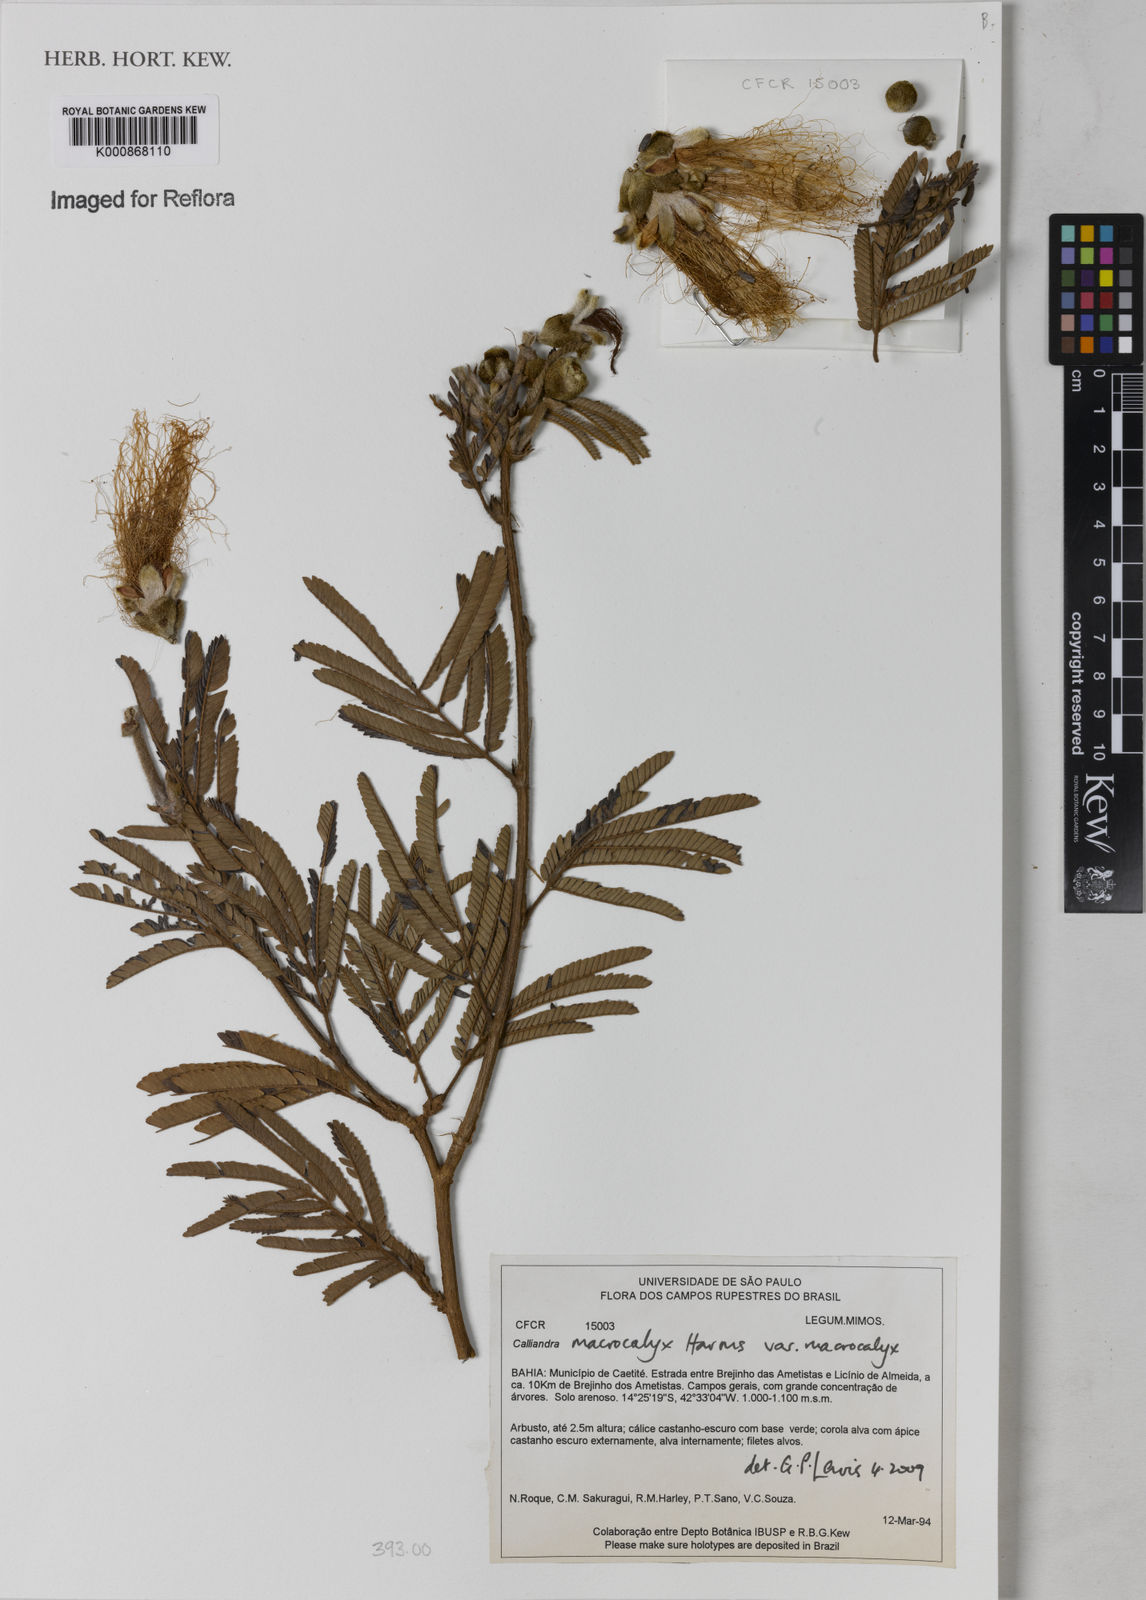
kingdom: Plantae
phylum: Tracheophyta
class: Magnoliopsida
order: Fabales
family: Fabaceae
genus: Calliandra
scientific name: Calliandra macrocalyx
